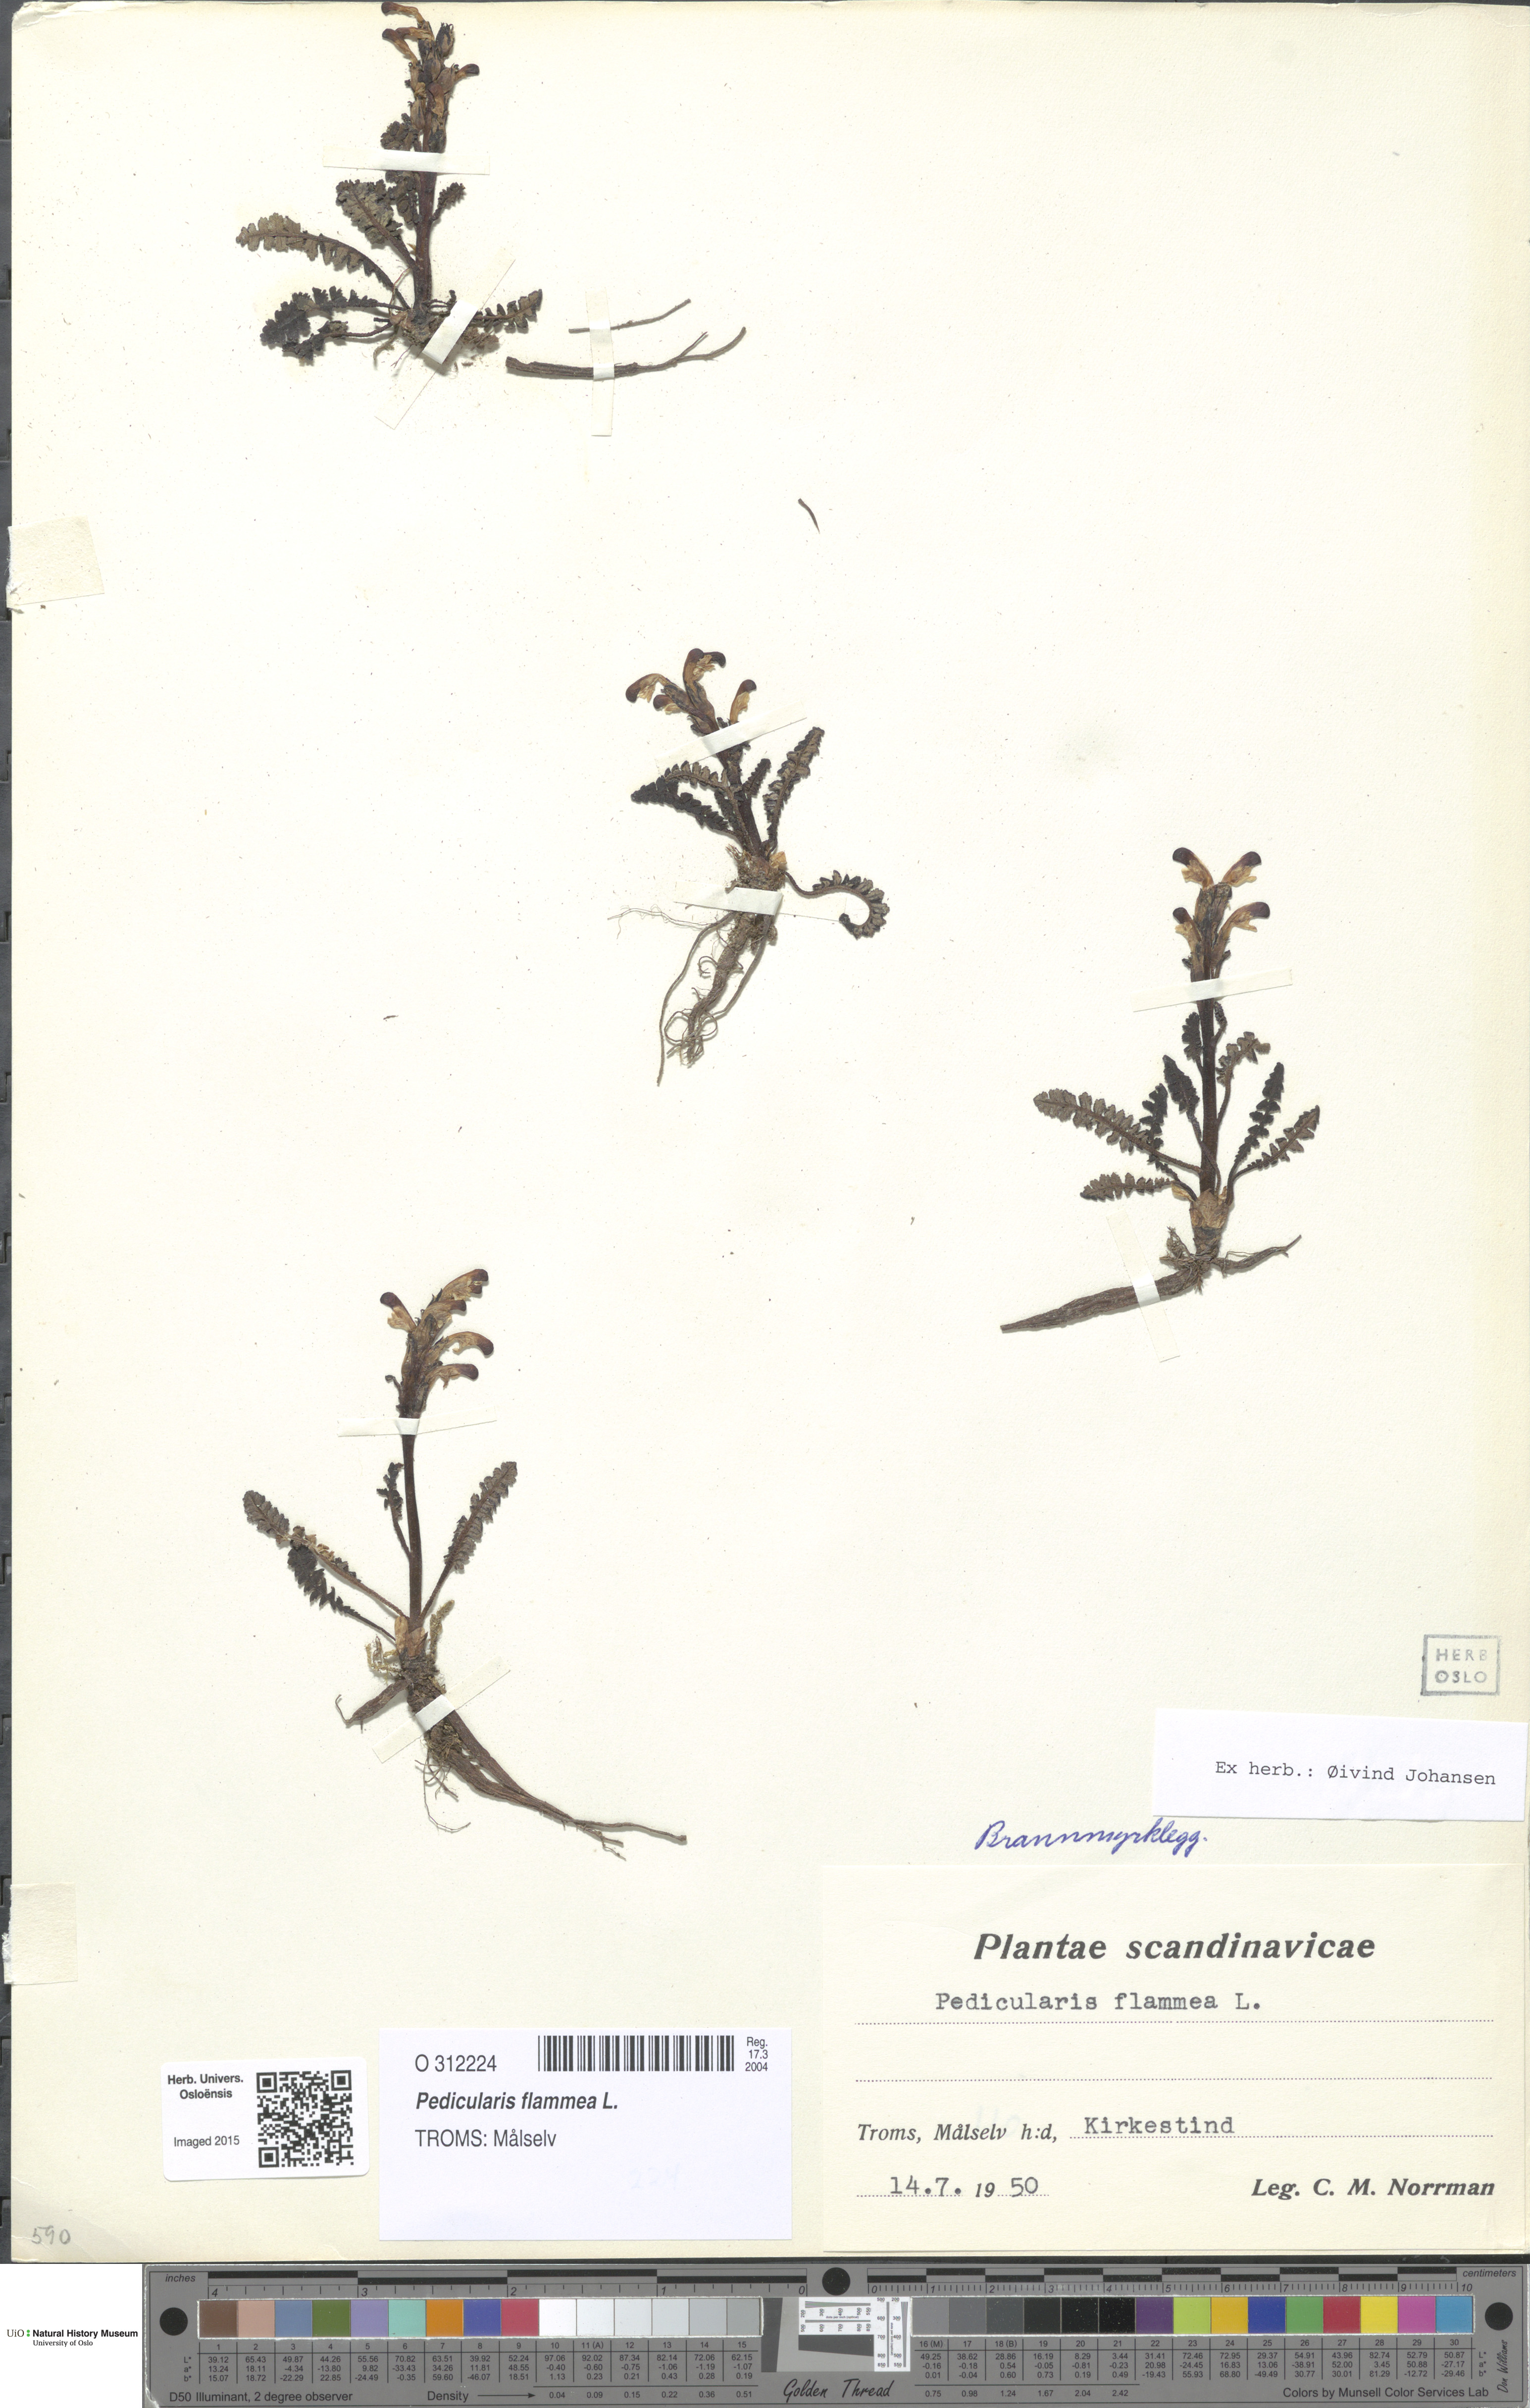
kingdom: Plantae
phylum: Tracheophyta
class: Magnoliopsida
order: Lamiales
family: Orobanchaceae
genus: Pedicularis
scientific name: Pedicularis flammea
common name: Flame-coloured lousewort
